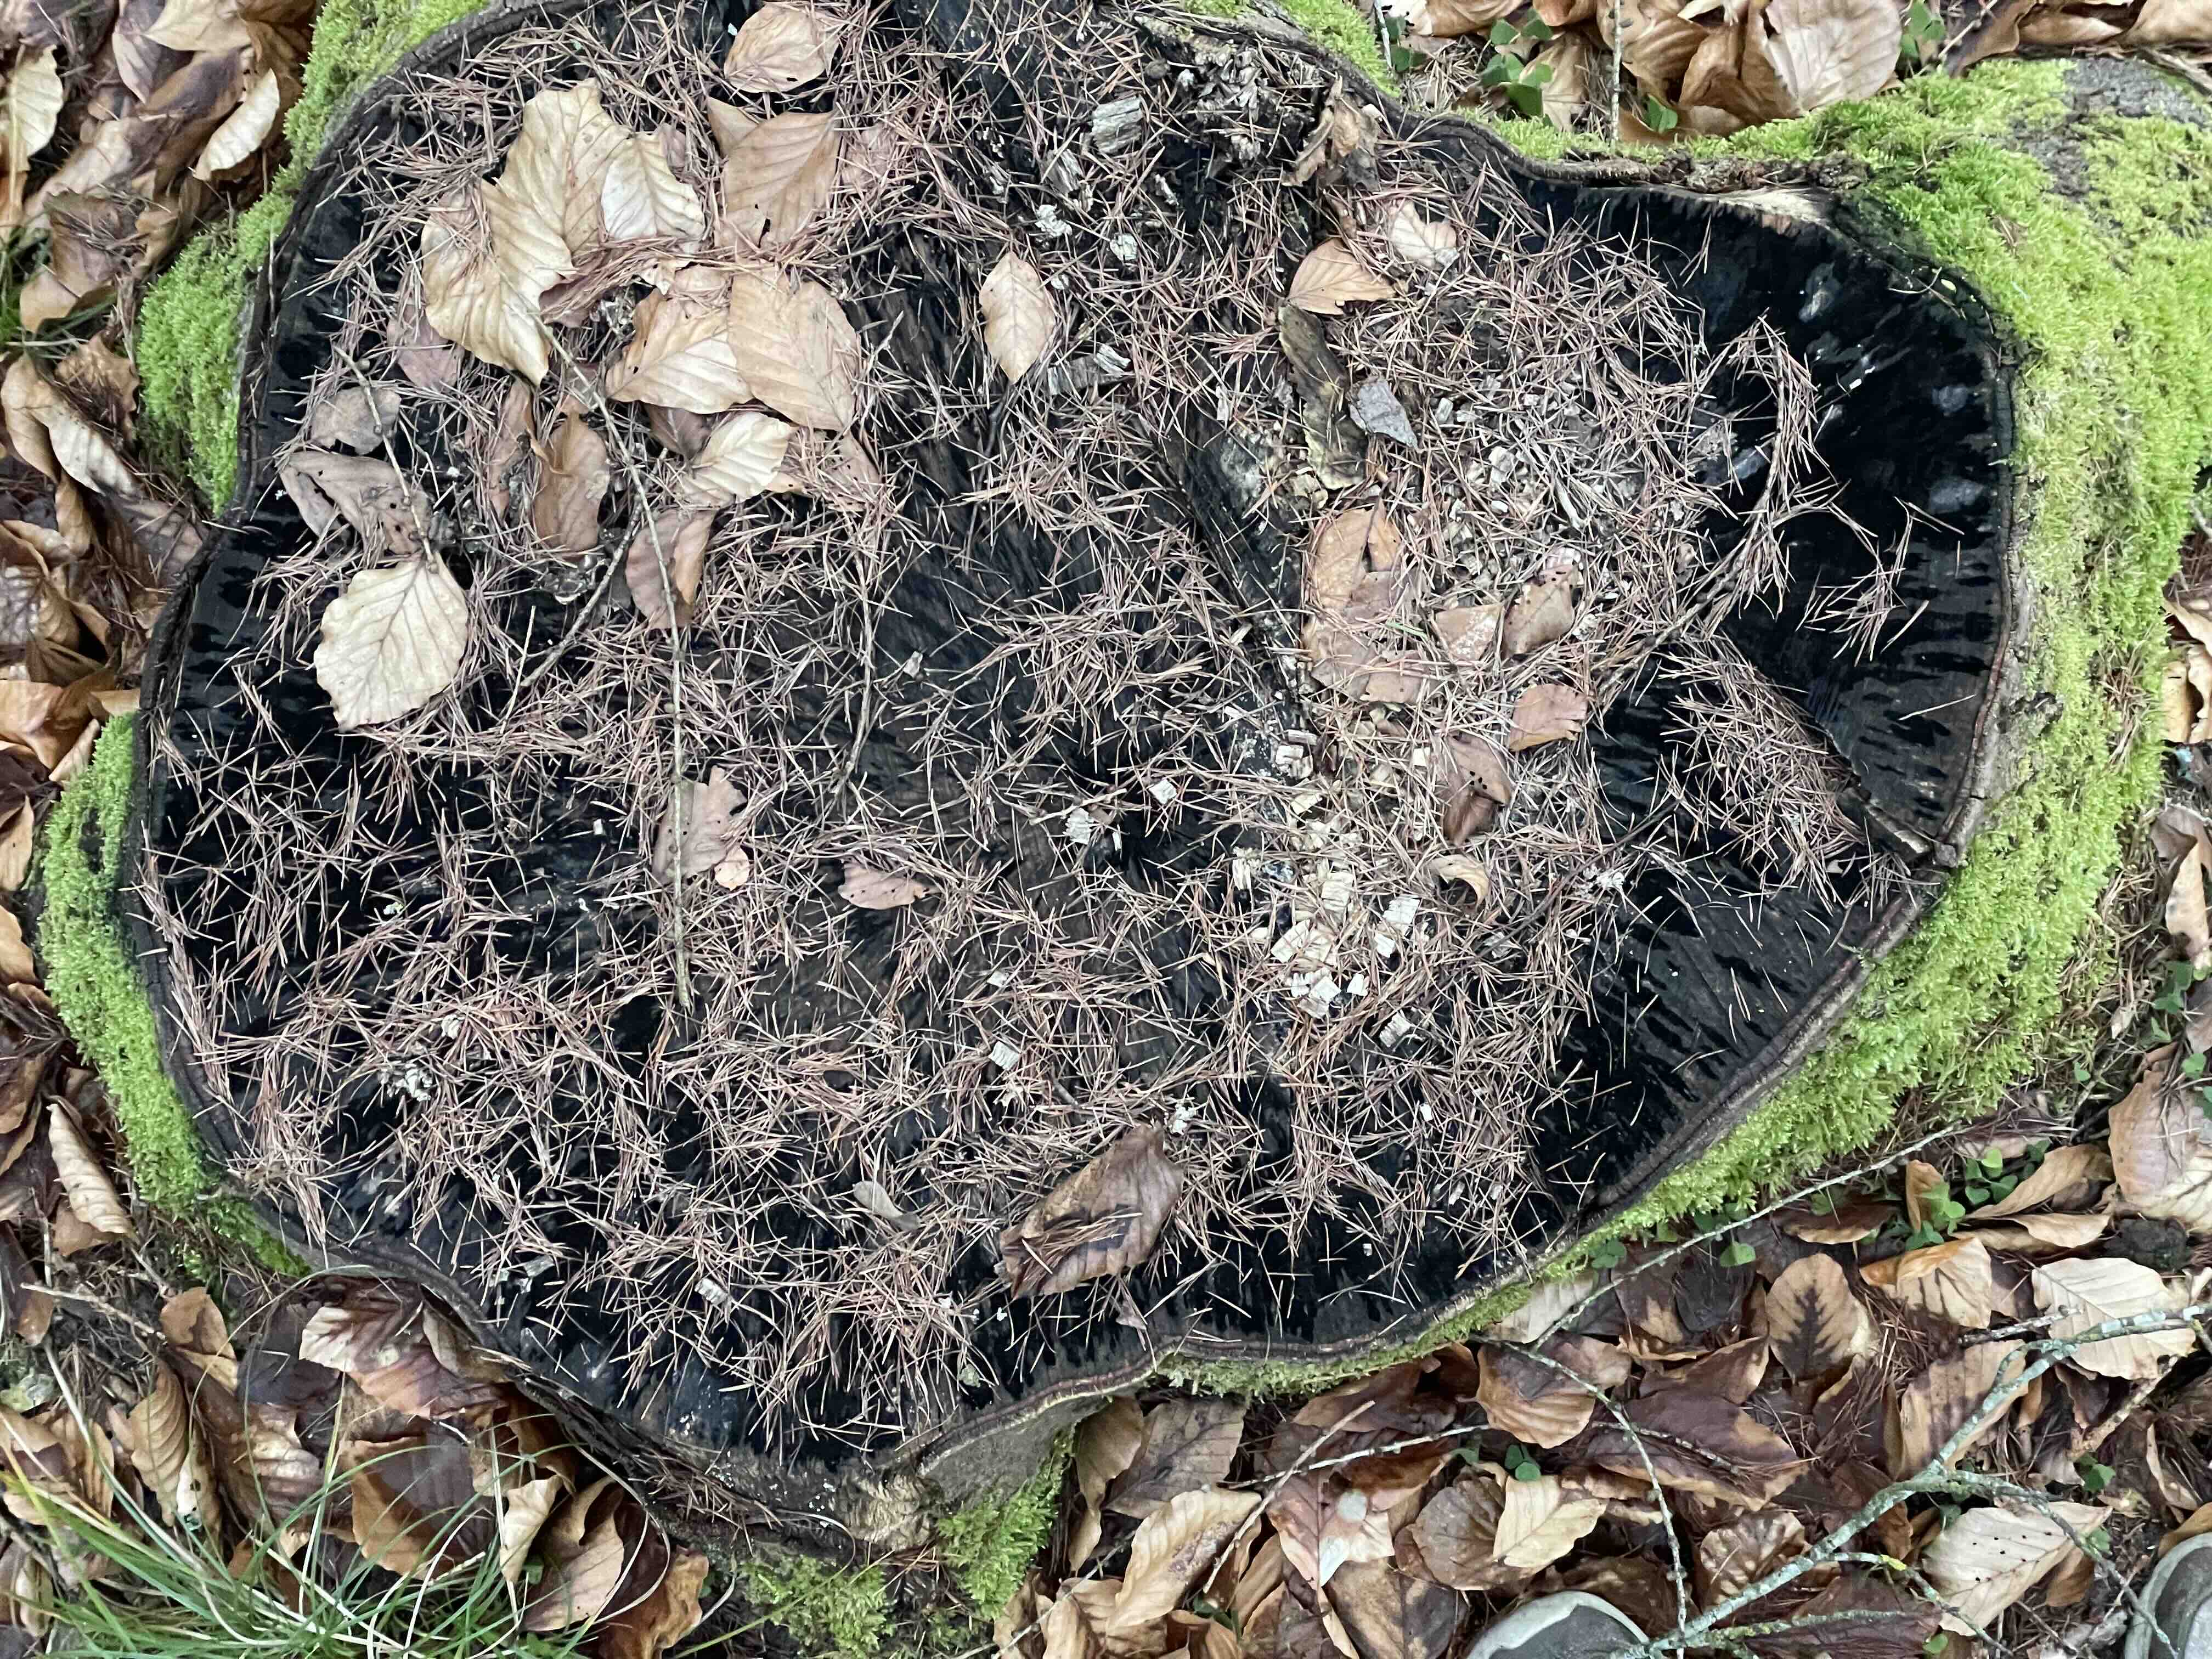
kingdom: Fungi
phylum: Ascomycota
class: Leotiomycetes
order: Helotiales
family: Helotiaceae
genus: Bispora
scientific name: Bispora pallescens
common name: måtte-snitskive
